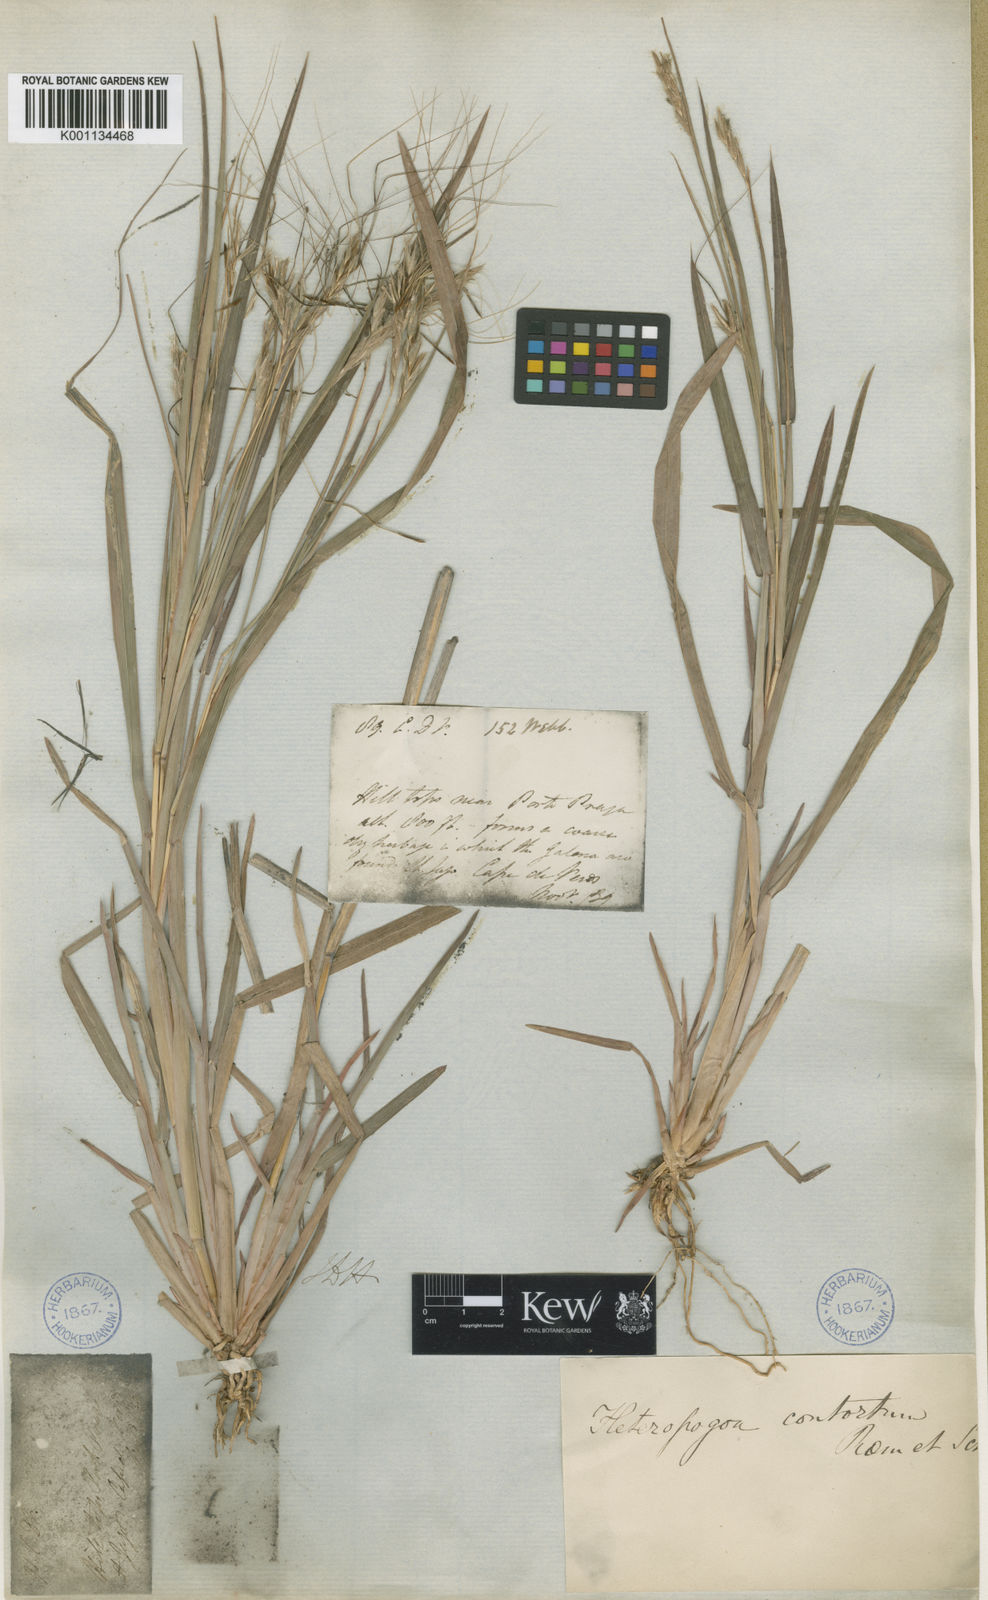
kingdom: Plantae
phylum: Tracheophyta
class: Liliopsida
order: Poales
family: Poaceae
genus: Heteropogon
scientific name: Heteropogon
